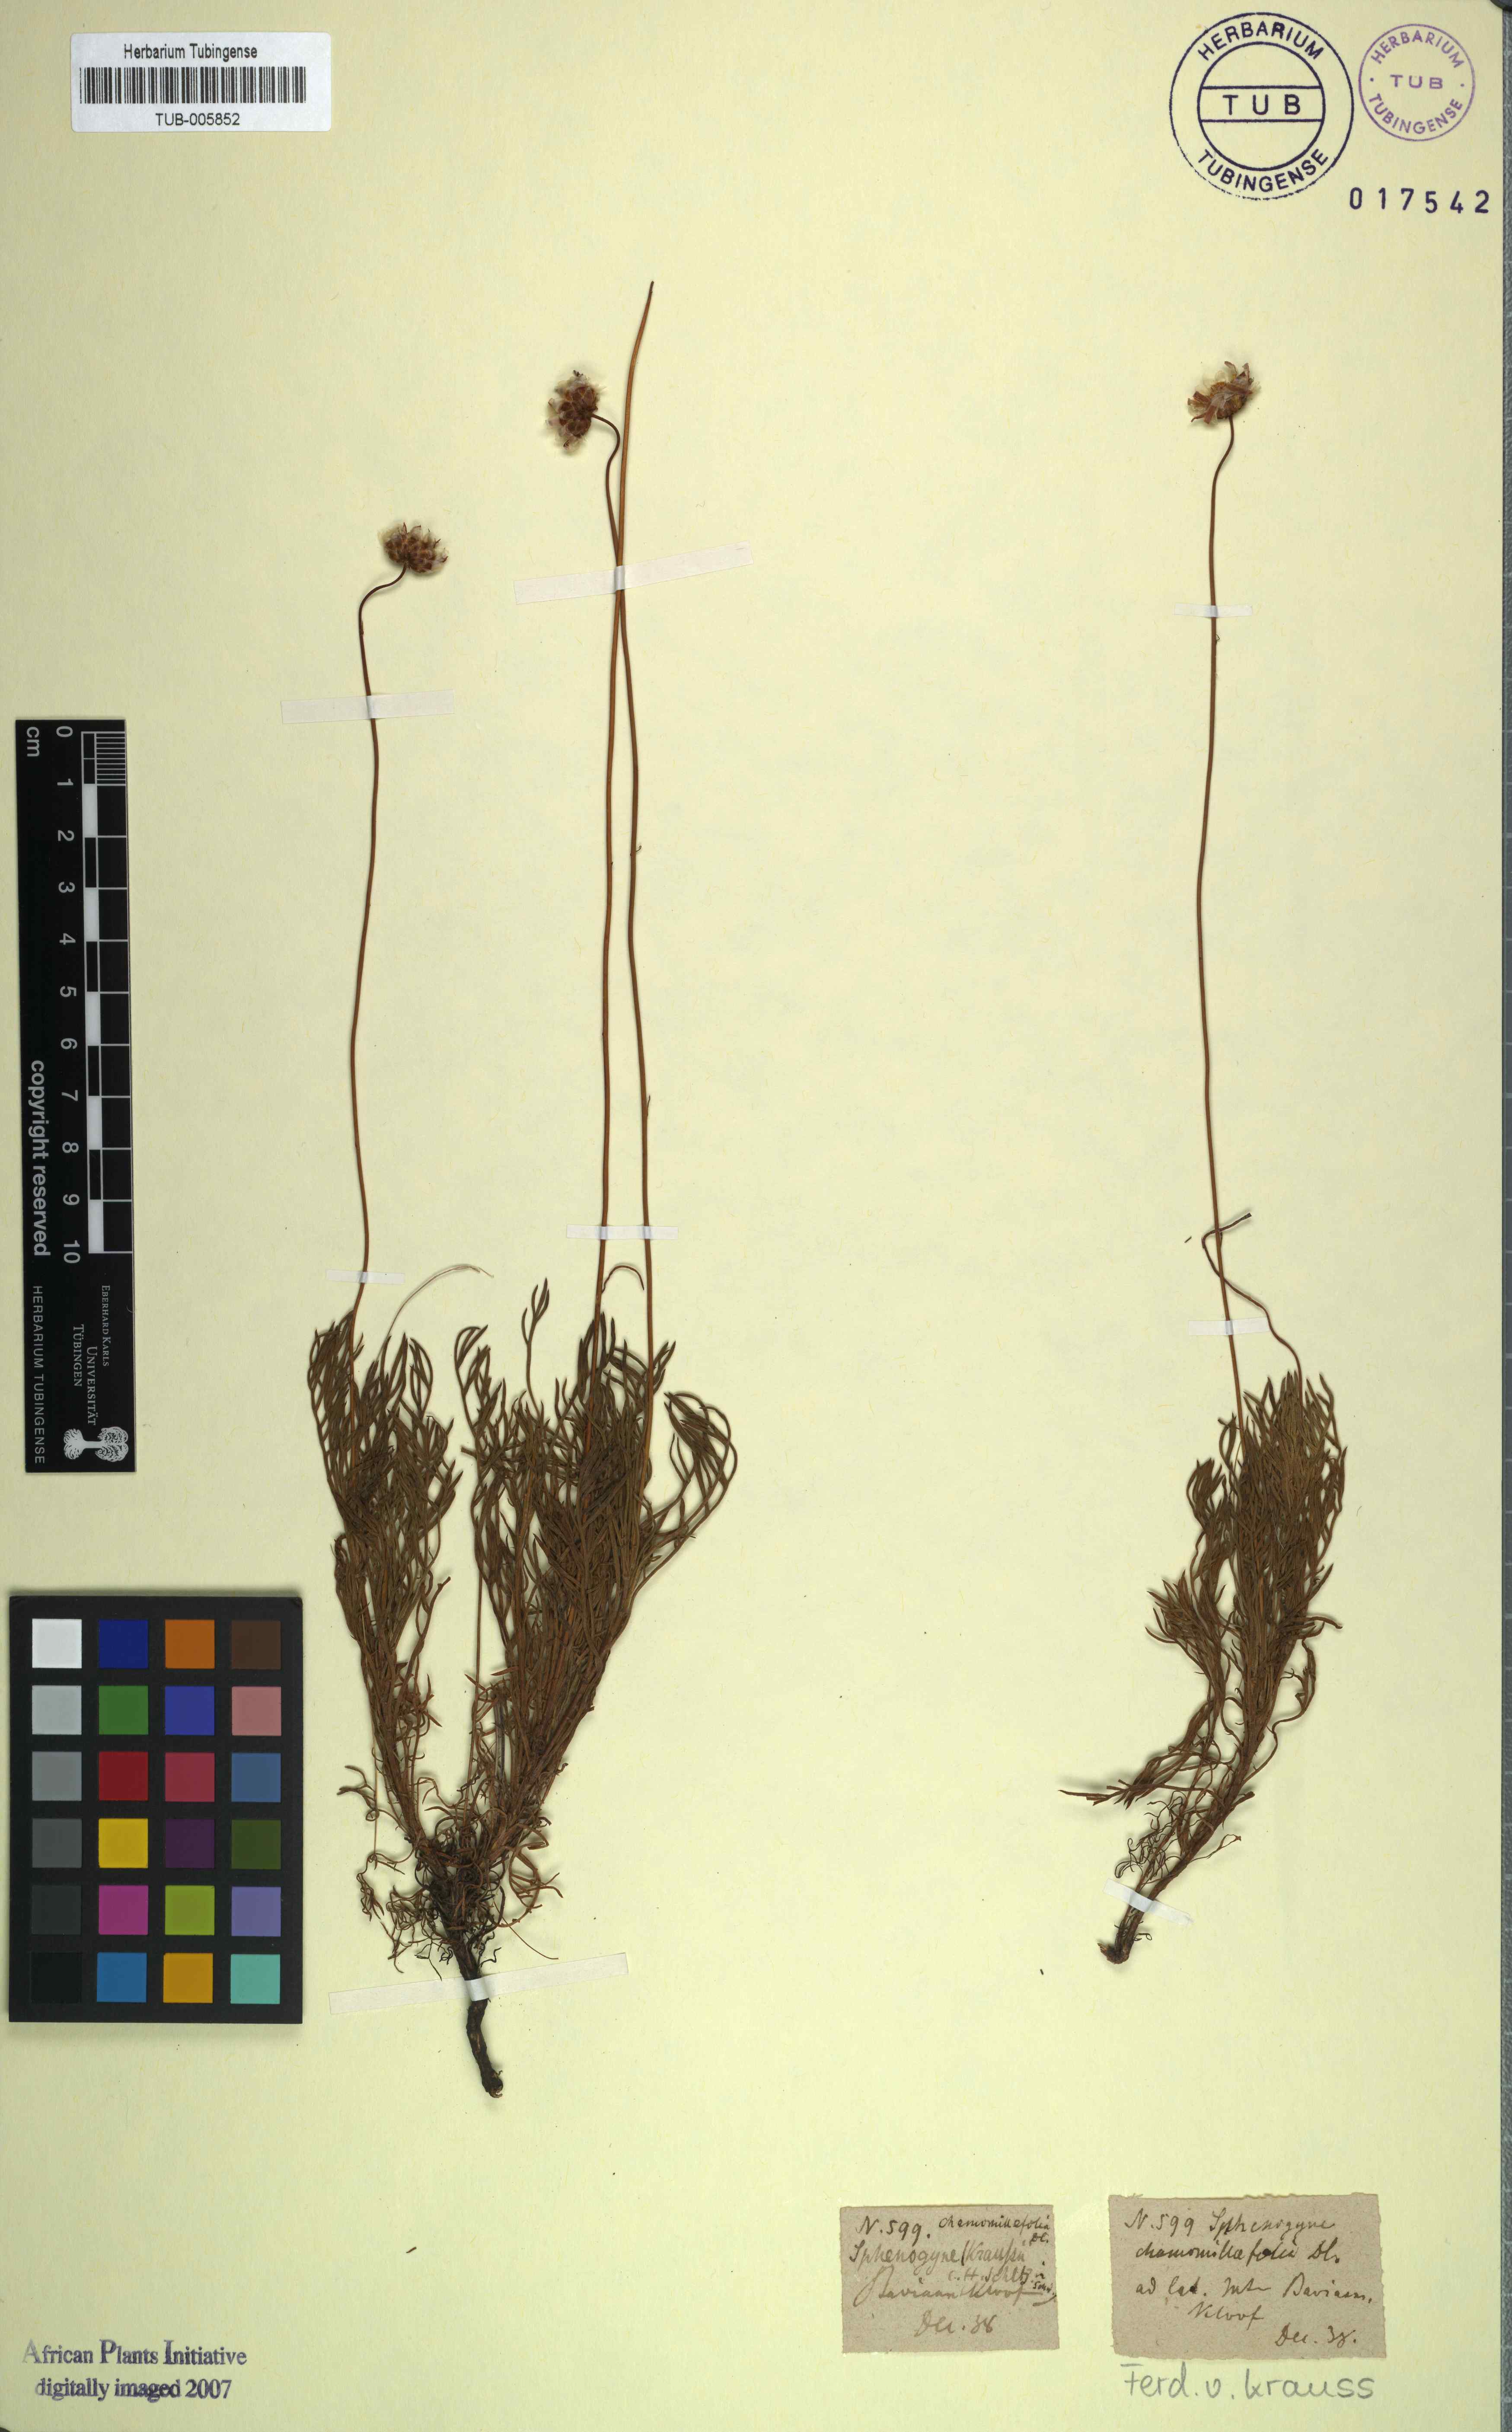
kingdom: Plantae
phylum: Tracheophyta
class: Magnoliopsida
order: Asterales
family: Asteraceae
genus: Ursinia
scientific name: Ursinia nudicaulis
